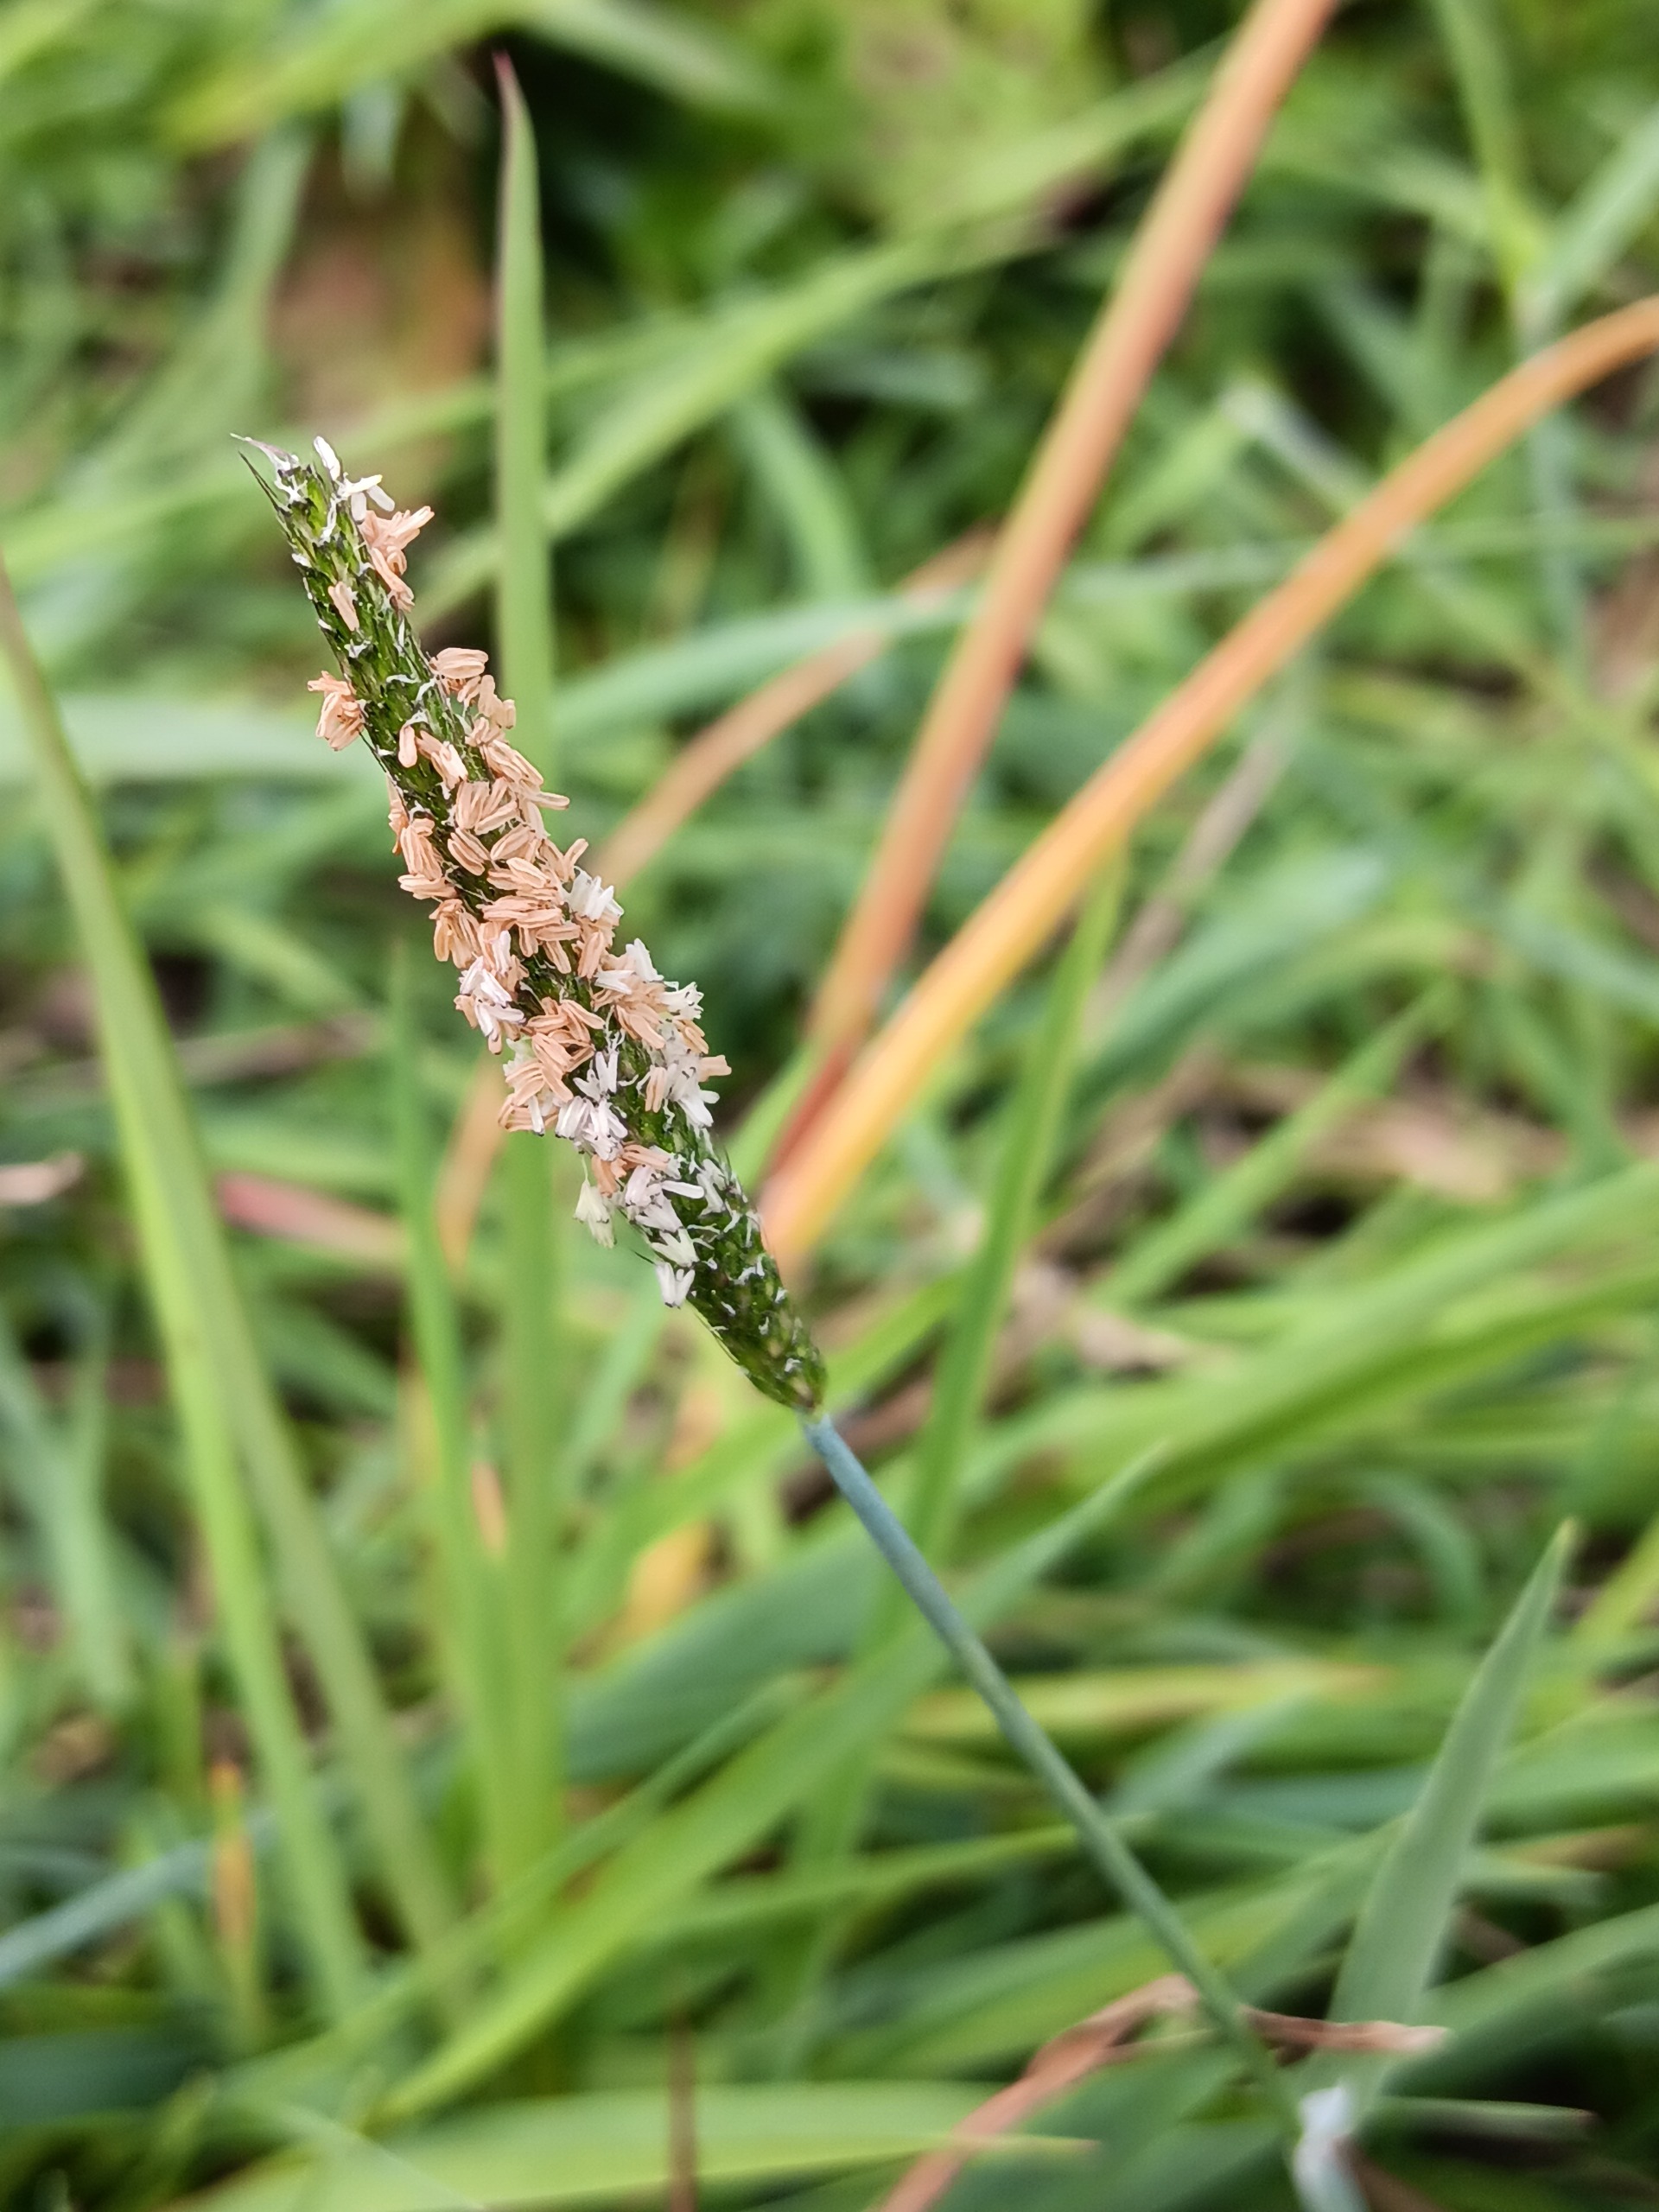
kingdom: Plantae
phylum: Tracheophyta
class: Liliopsida
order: Poales
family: Poaceae
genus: Alopecurus
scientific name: Alopecurus geniculatus
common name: Knæbøjet rævehale
